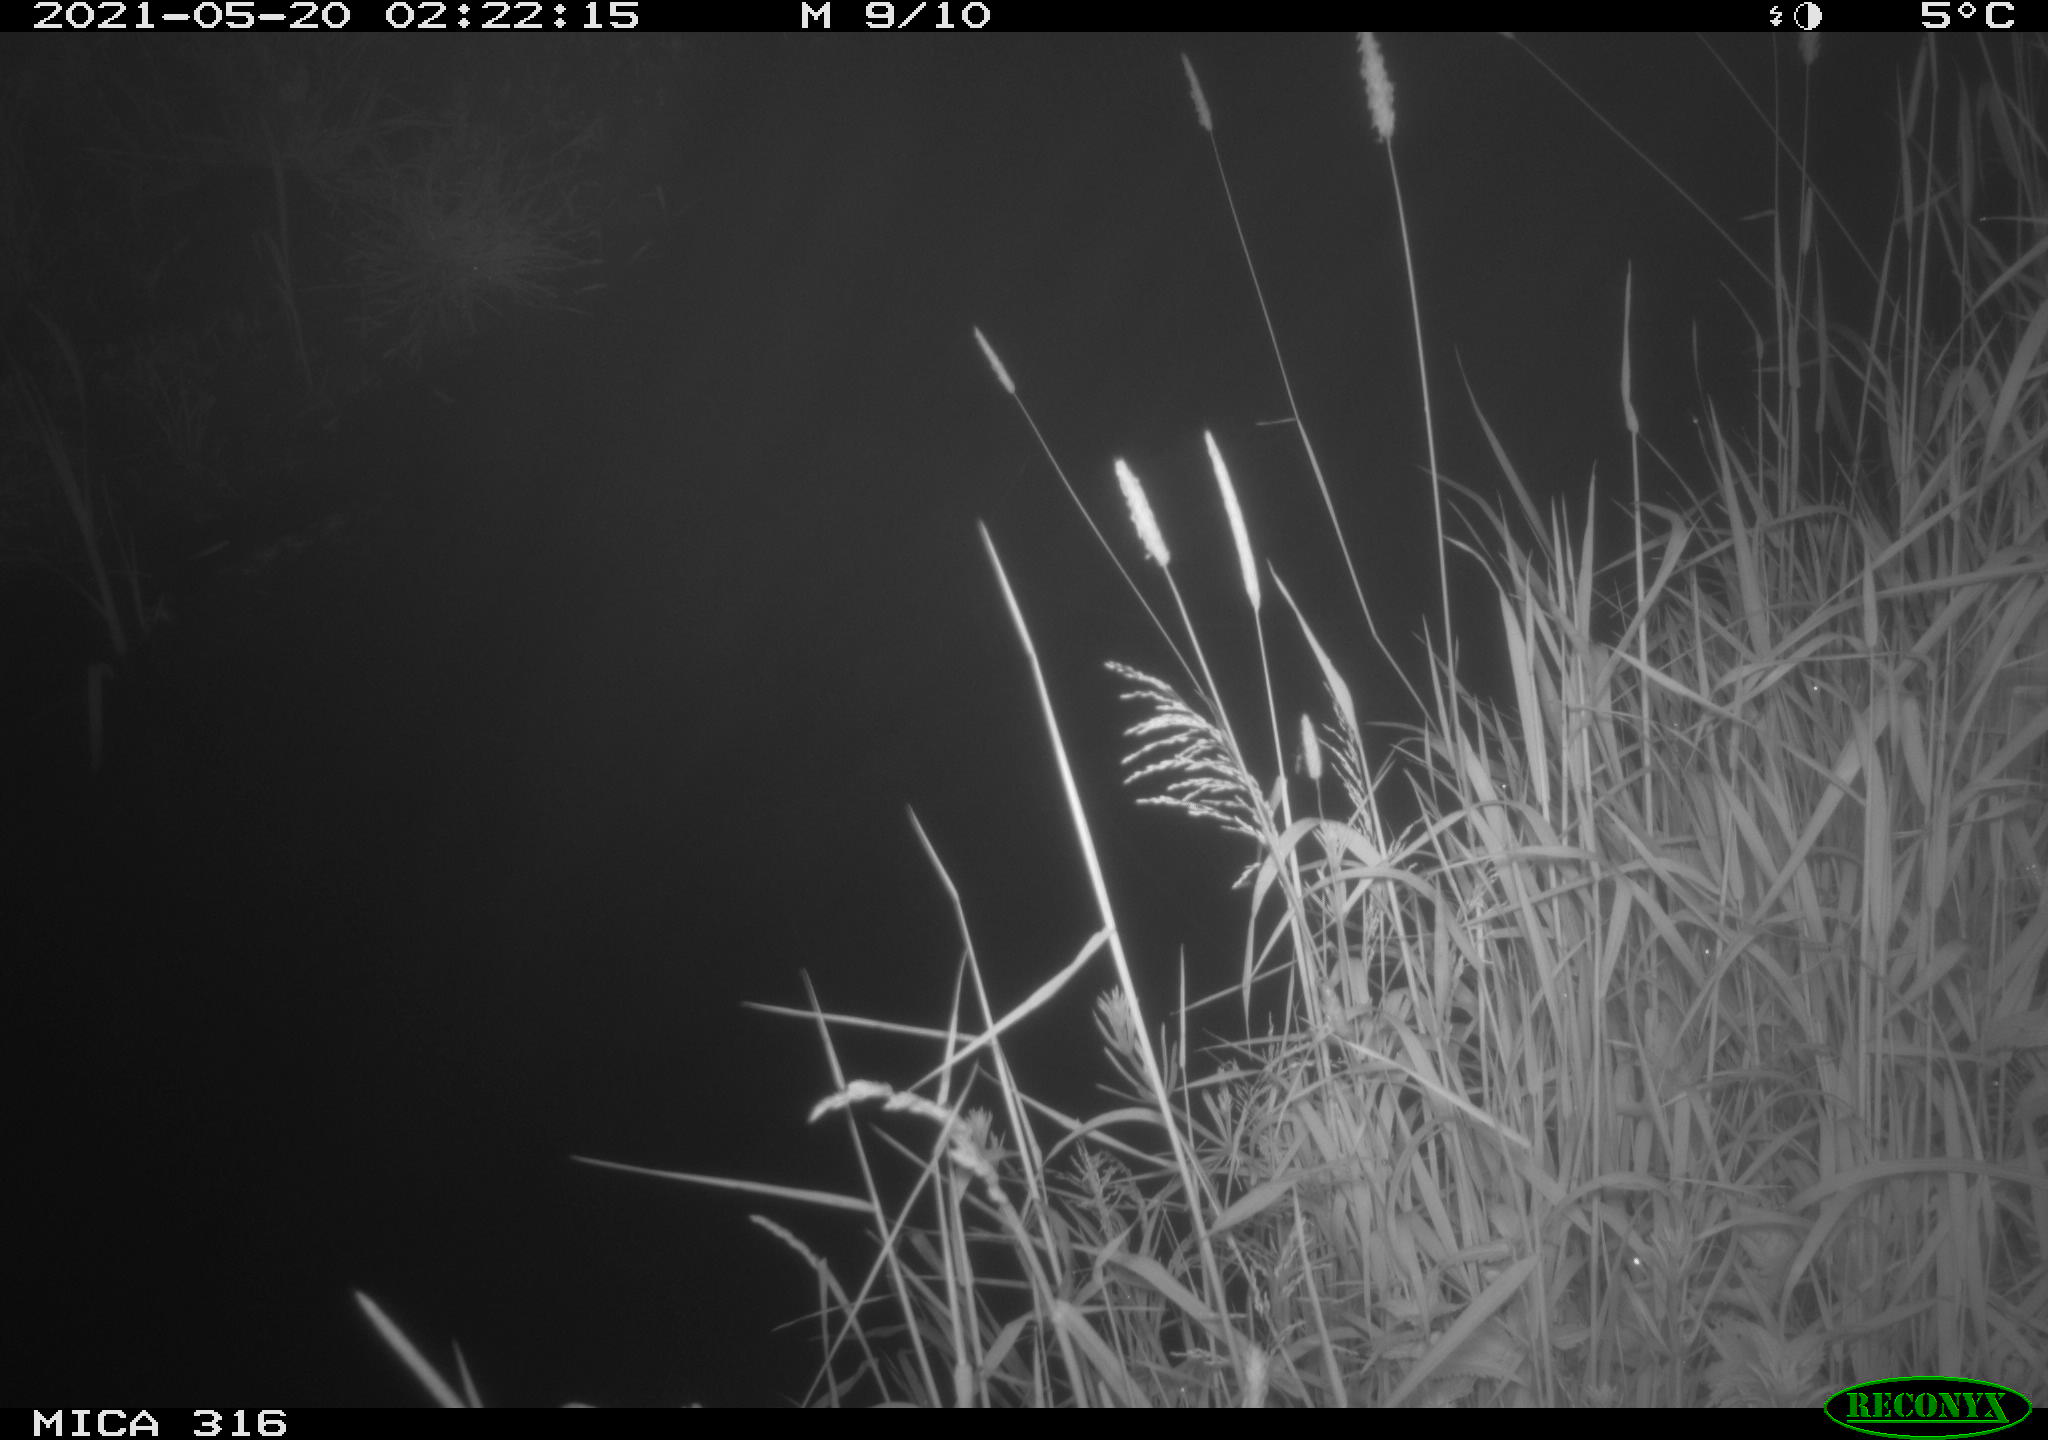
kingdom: Animalia
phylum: Chordata
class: Aves
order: Anseriformes
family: Anatidae
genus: Anas
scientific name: Anas platyrhynchos
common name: Mallard
